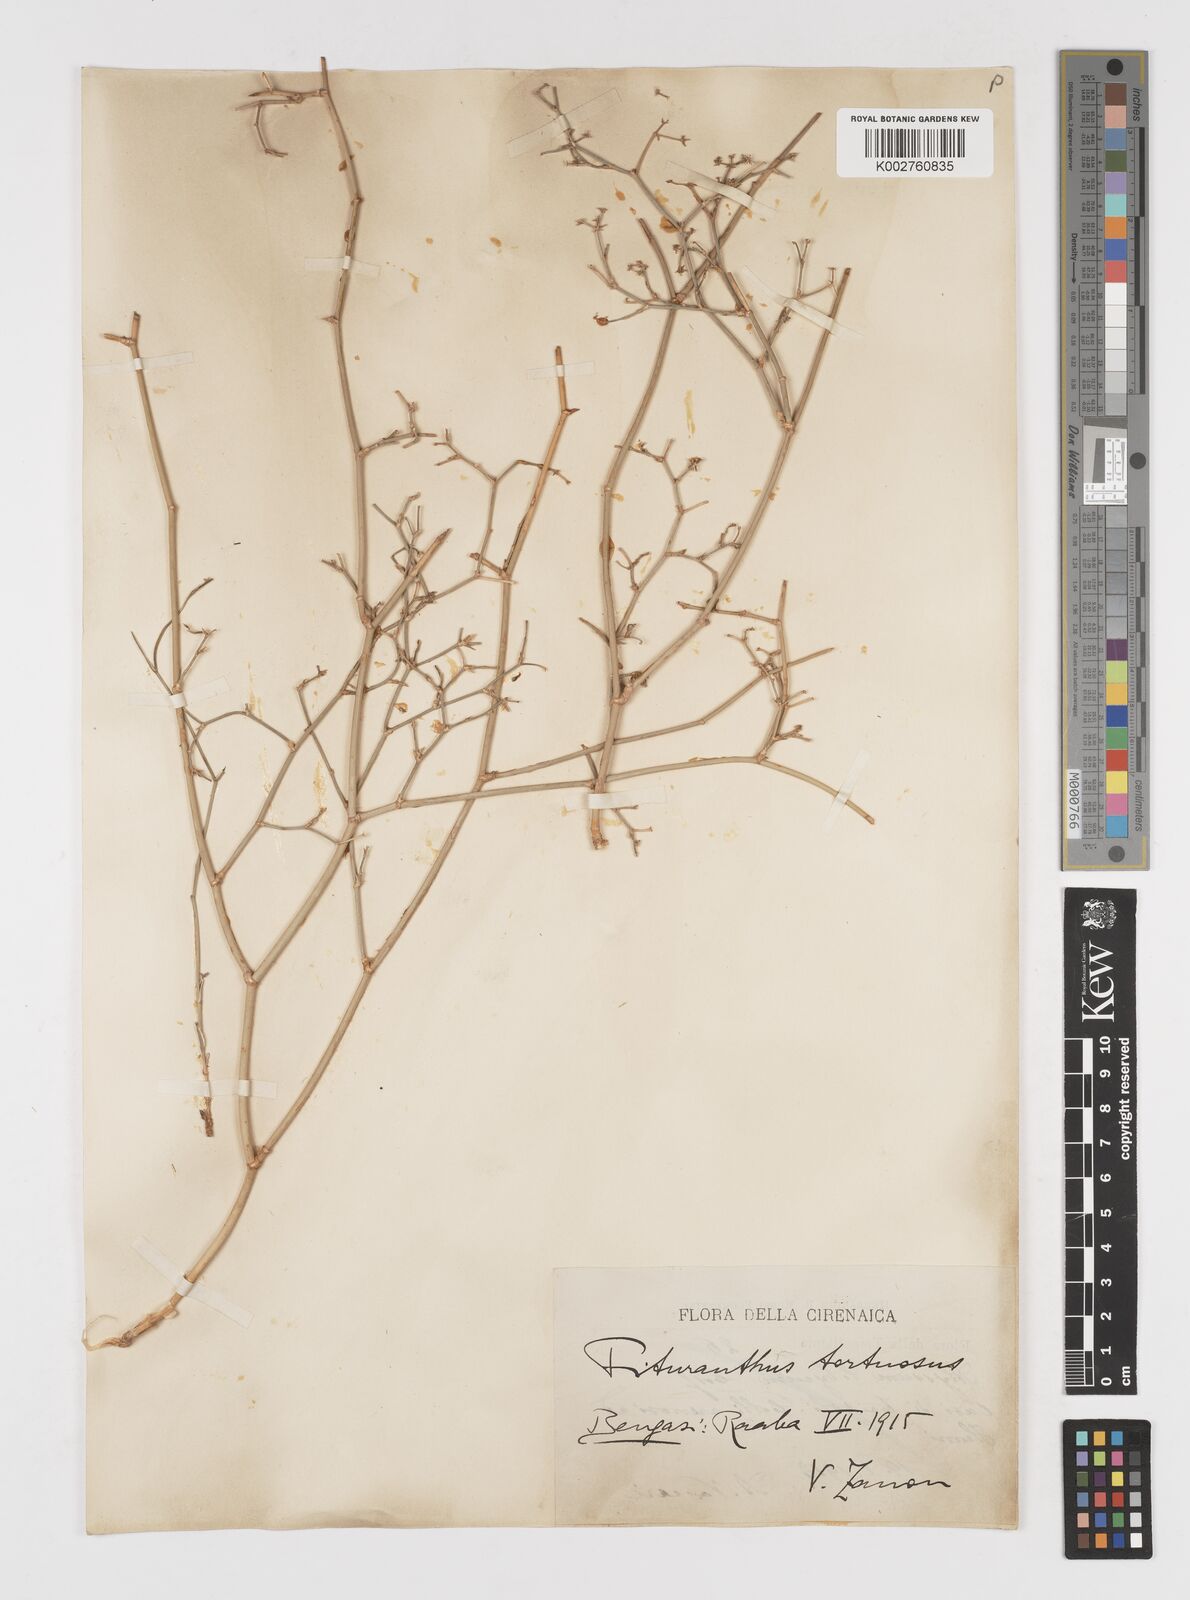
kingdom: Plantae
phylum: Tracheophyta
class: Magnoliopsida
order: Apiales
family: Apiaceae
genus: Deverra
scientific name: Deverra
